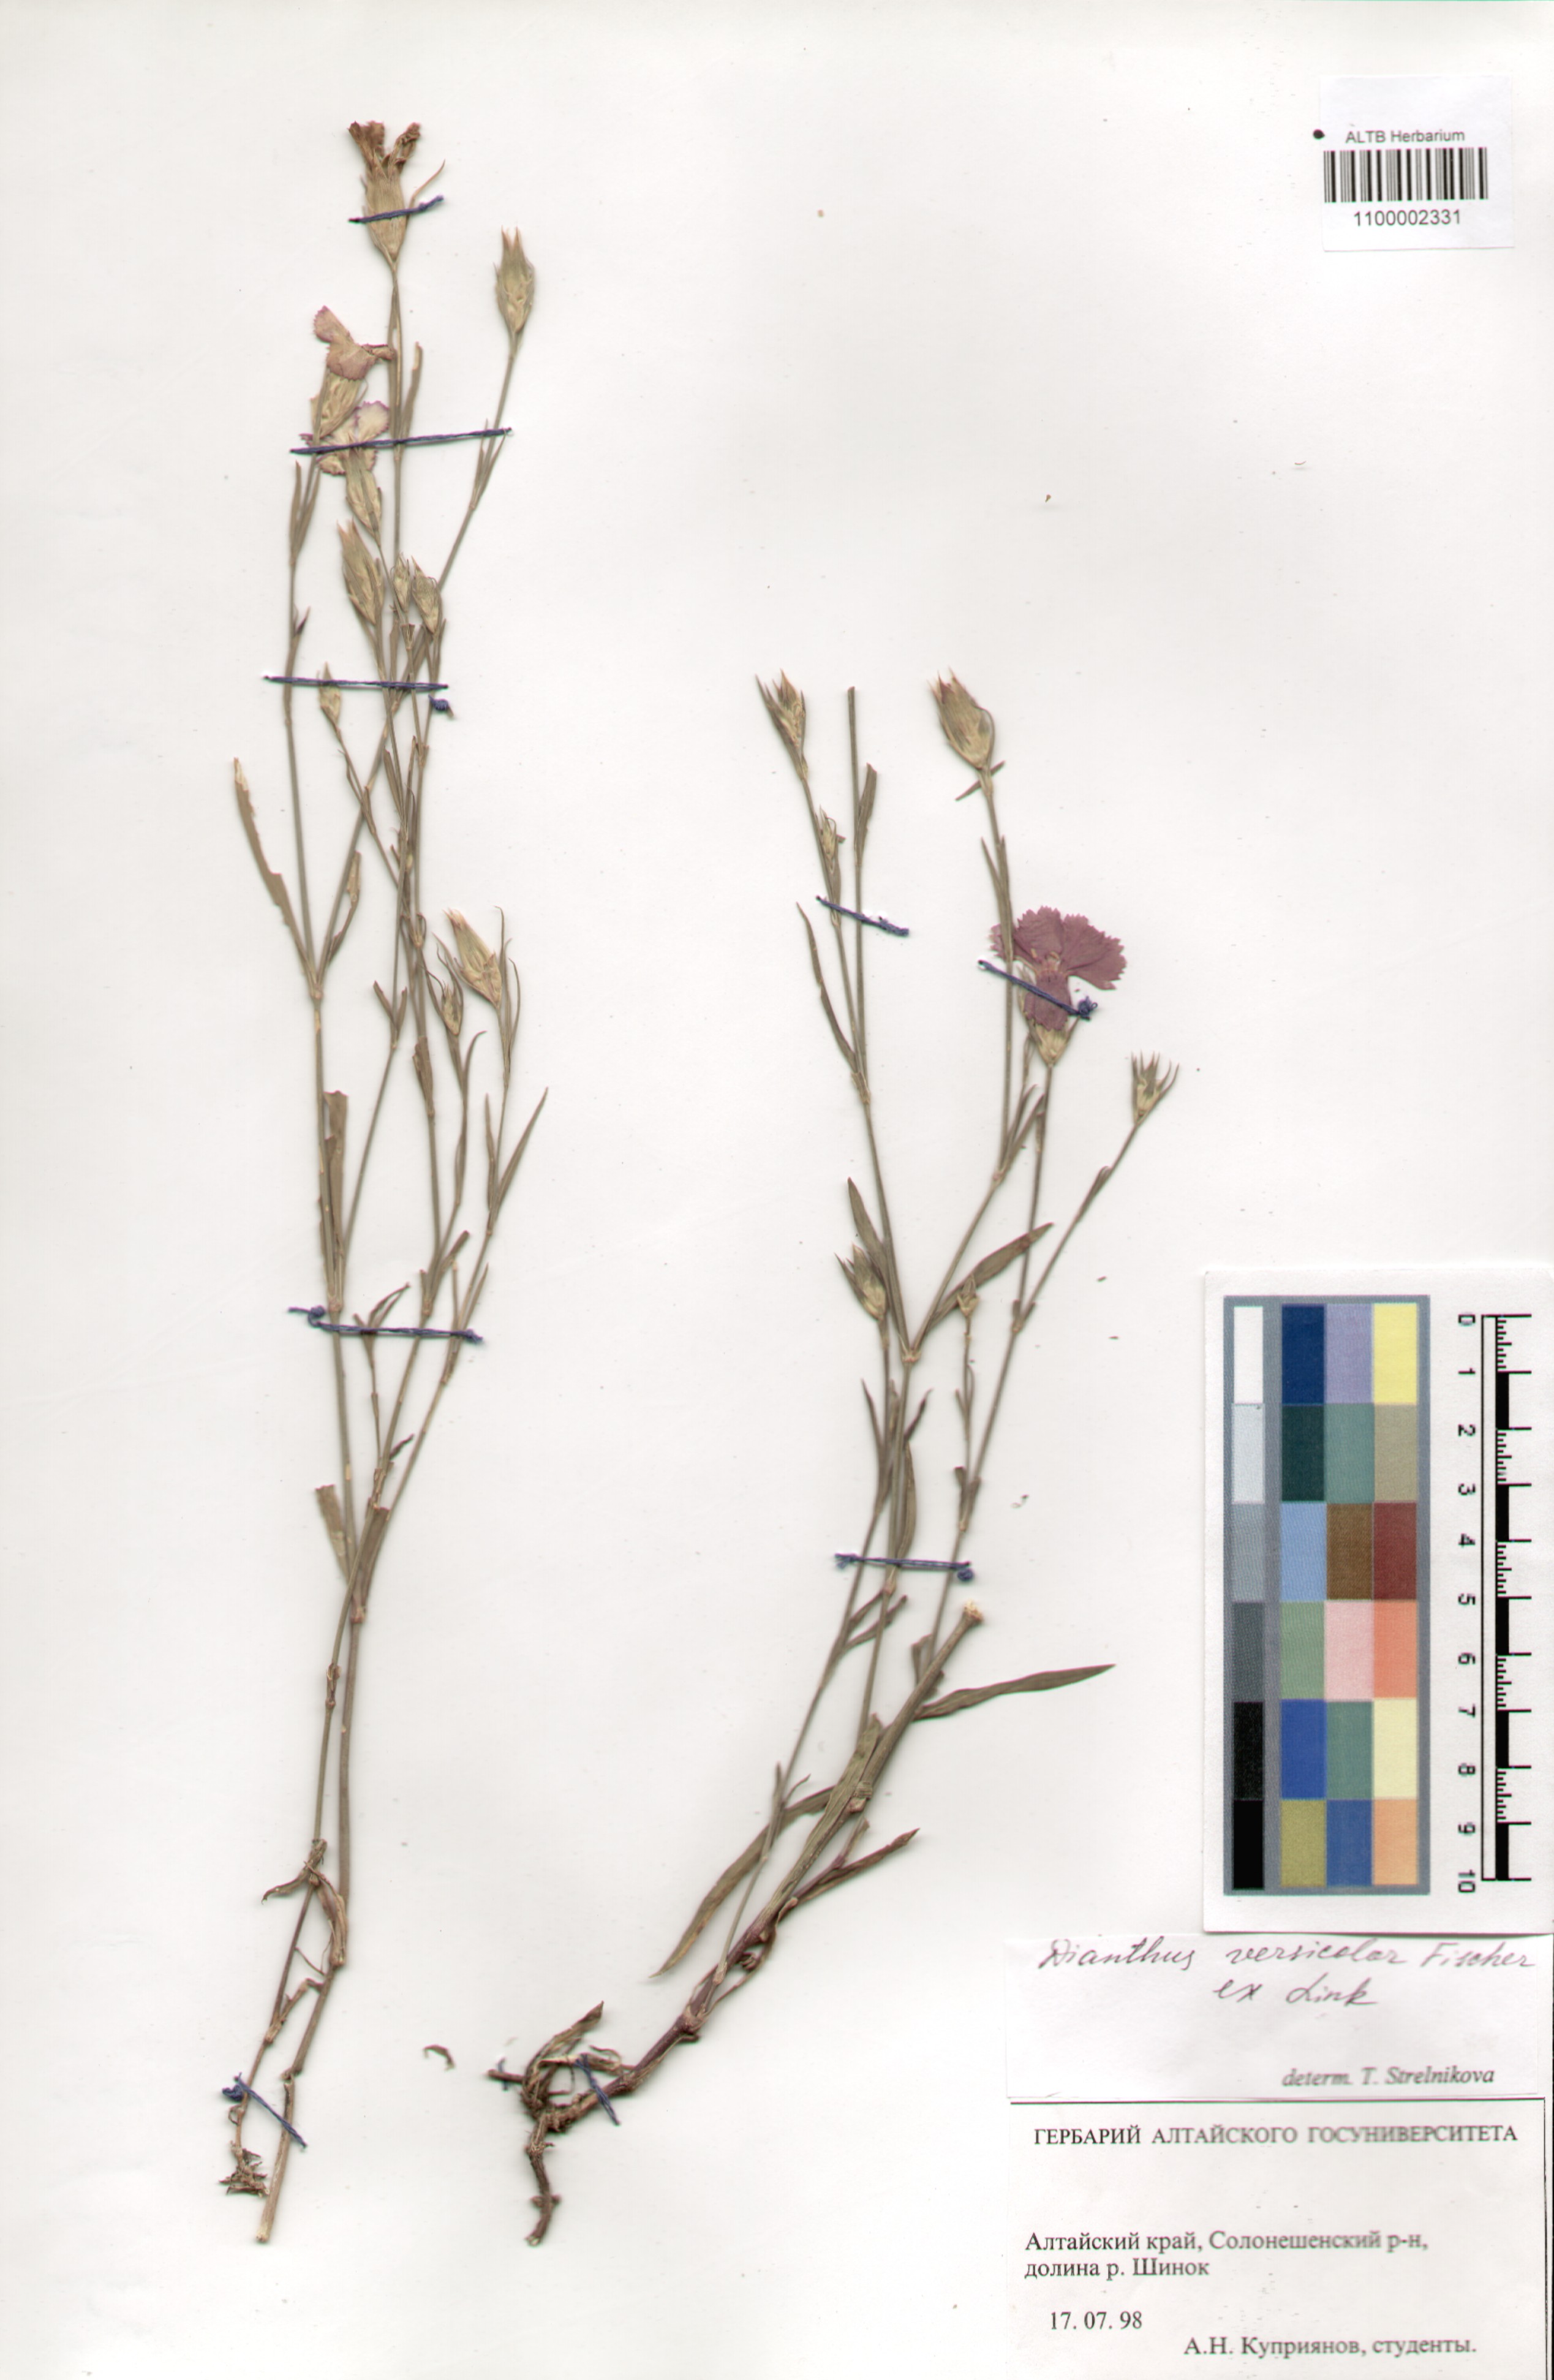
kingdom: Plantae
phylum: Tracheophyta
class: Magnoliopsida
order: Caryophyllales
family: Caryophyllaceae
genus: Dianthus
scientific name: Dianthus chinensis
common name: Rainbow pink
